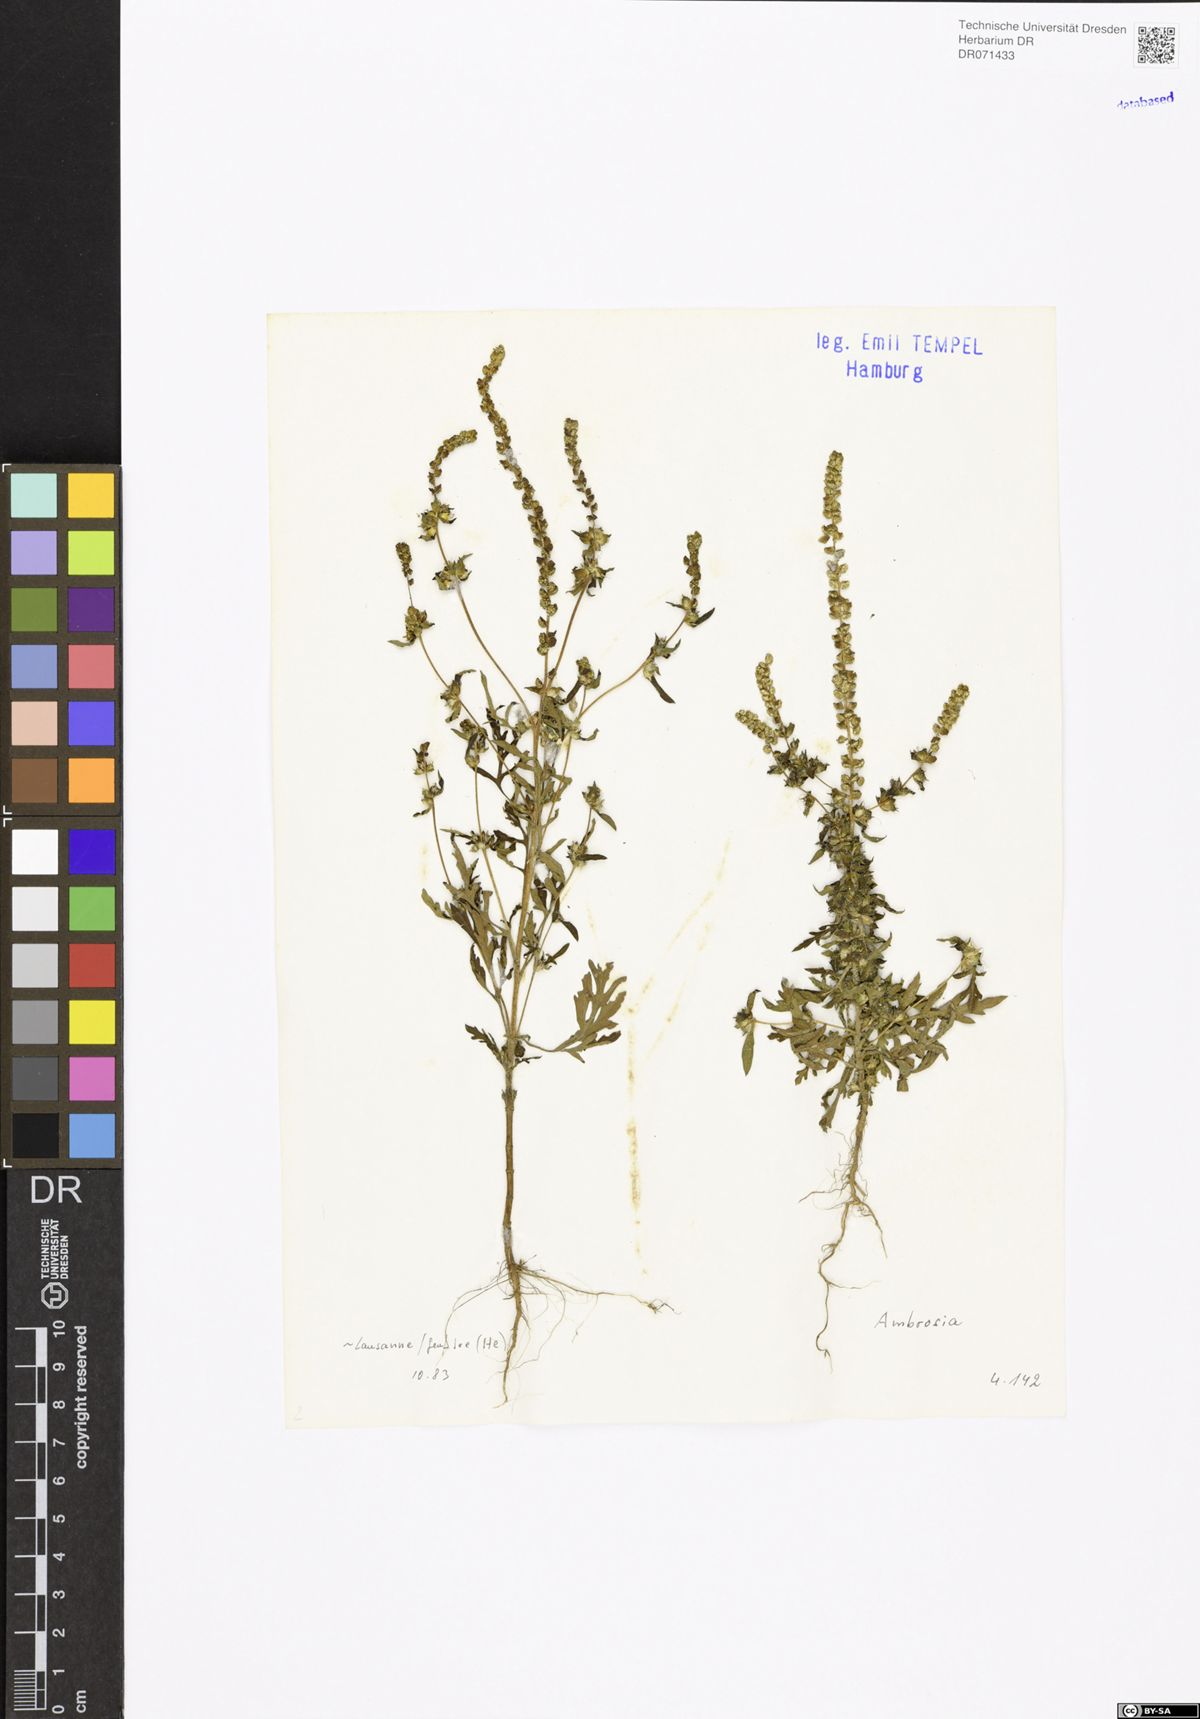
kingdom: Plantae
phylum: Tracheophyta
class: Magnoliopsida
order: Asterales
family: Asteraceae
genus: Ambrosia
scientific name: Ambrosia
